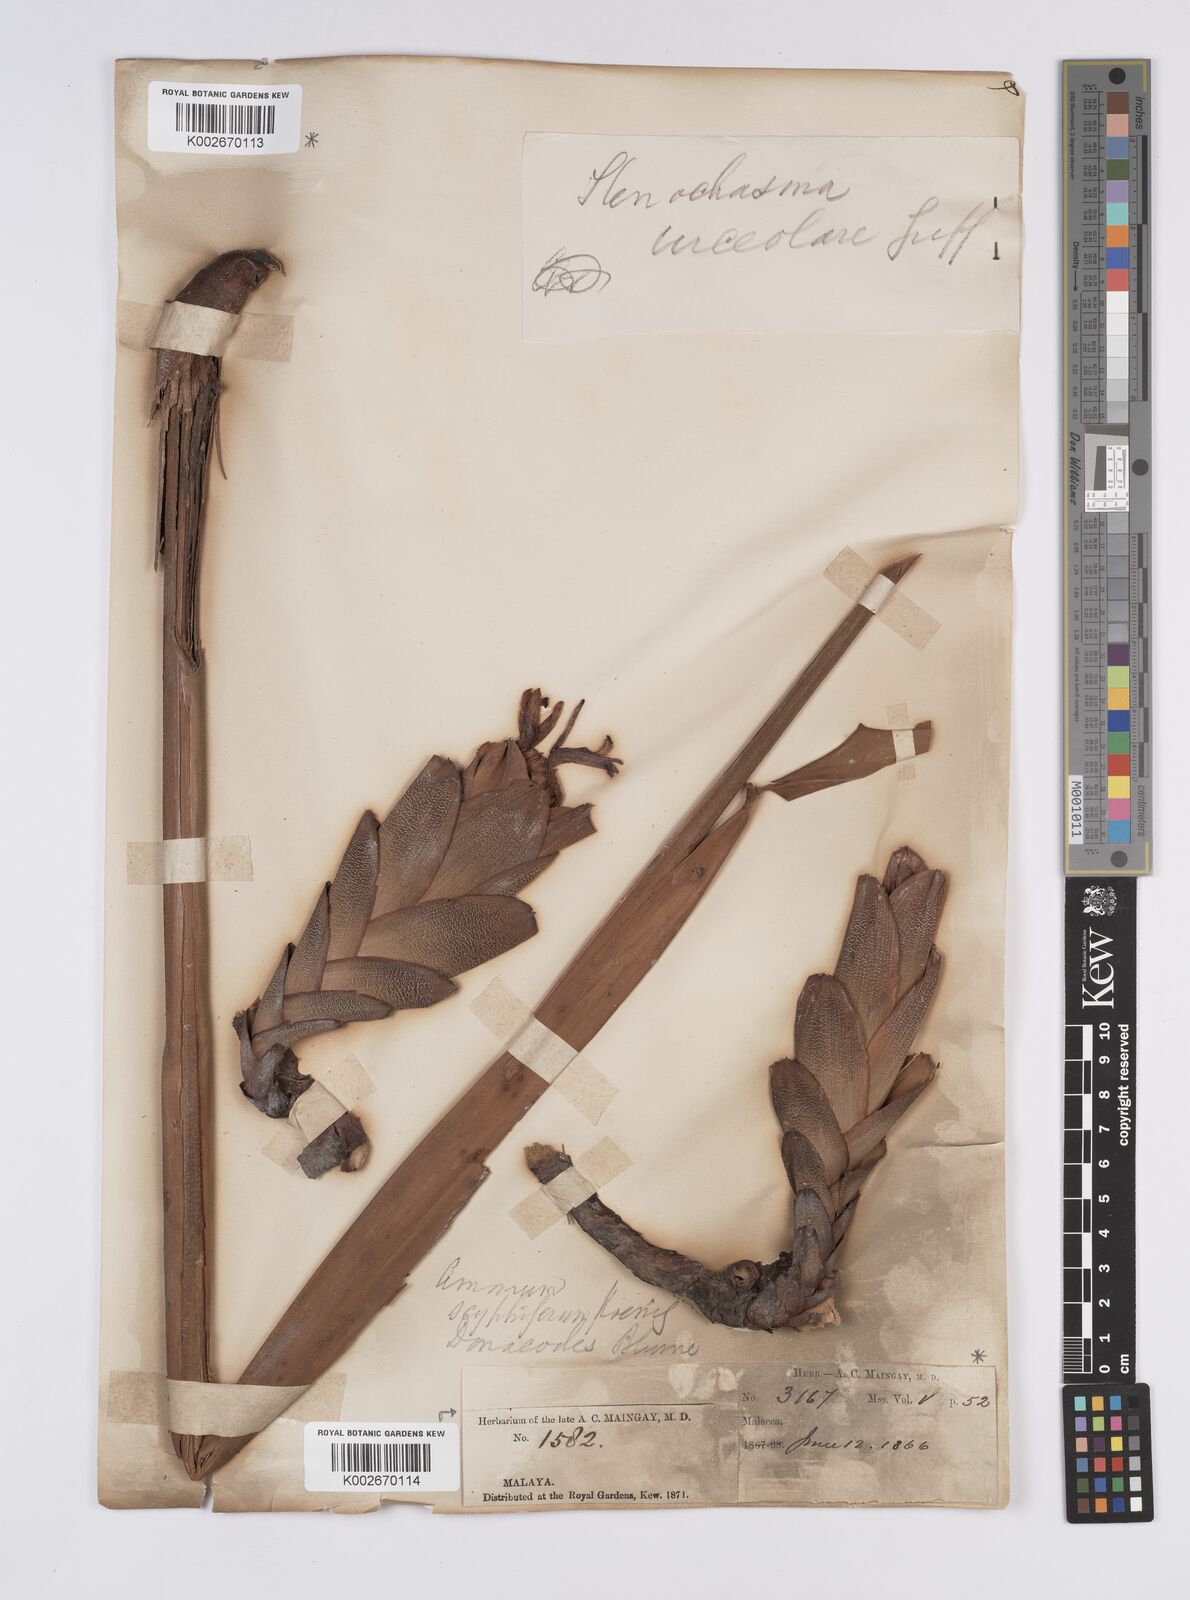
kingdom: Plantae
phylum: Tracheophyta
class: Liliopsida
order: Zingiberales
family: Zingiberaceae
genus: Hornstedtia
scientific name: Hornstedtia scyphifera
